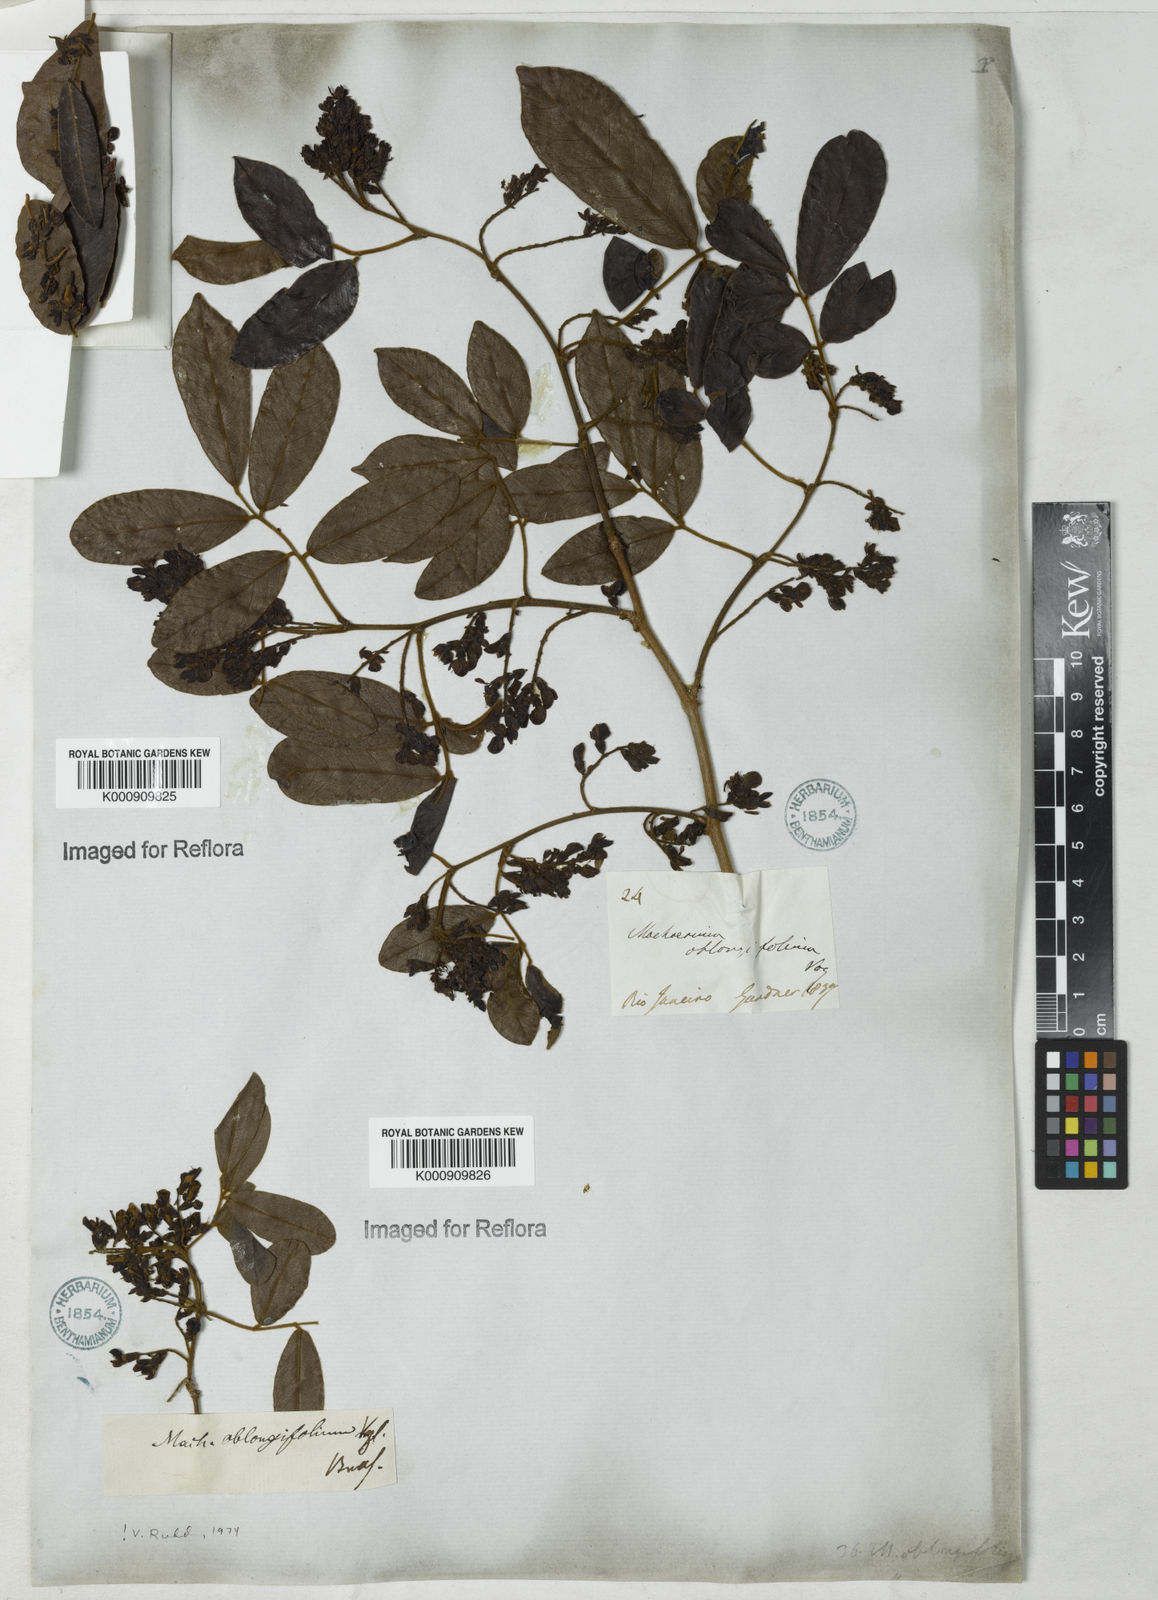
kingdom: Plantae
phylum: Tracheophyta
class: Magnoliopsida
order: Fabales
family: Fabaceae
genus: Machaerium
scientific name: Machaerium oblongifolium
